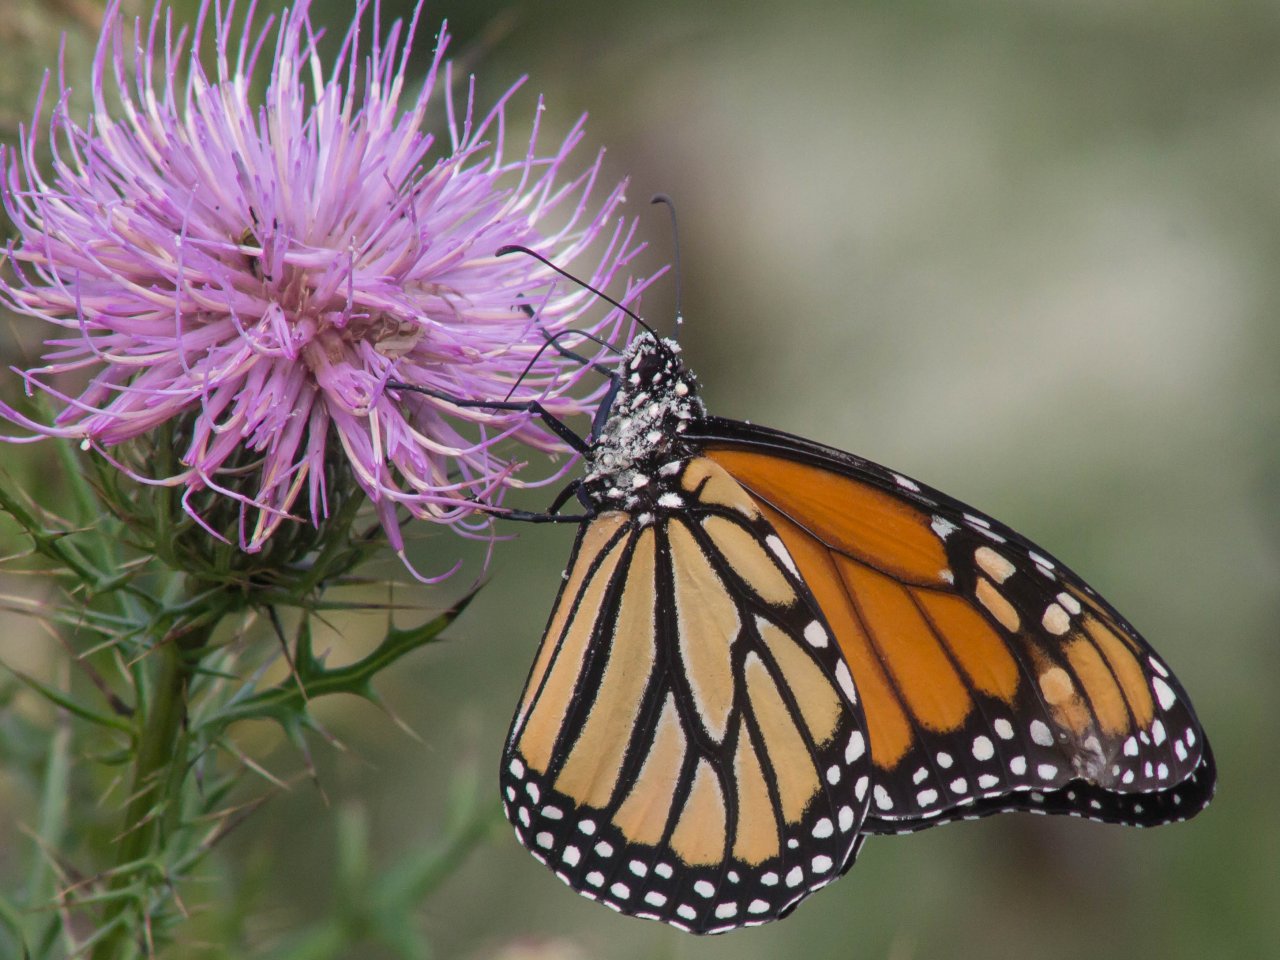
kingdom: Animalia
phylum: Arthropoda
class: Insecta
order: Lepidoptera
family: Nymphalidae
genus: Danaus
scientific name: Danaus plexippus
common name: Monarch
